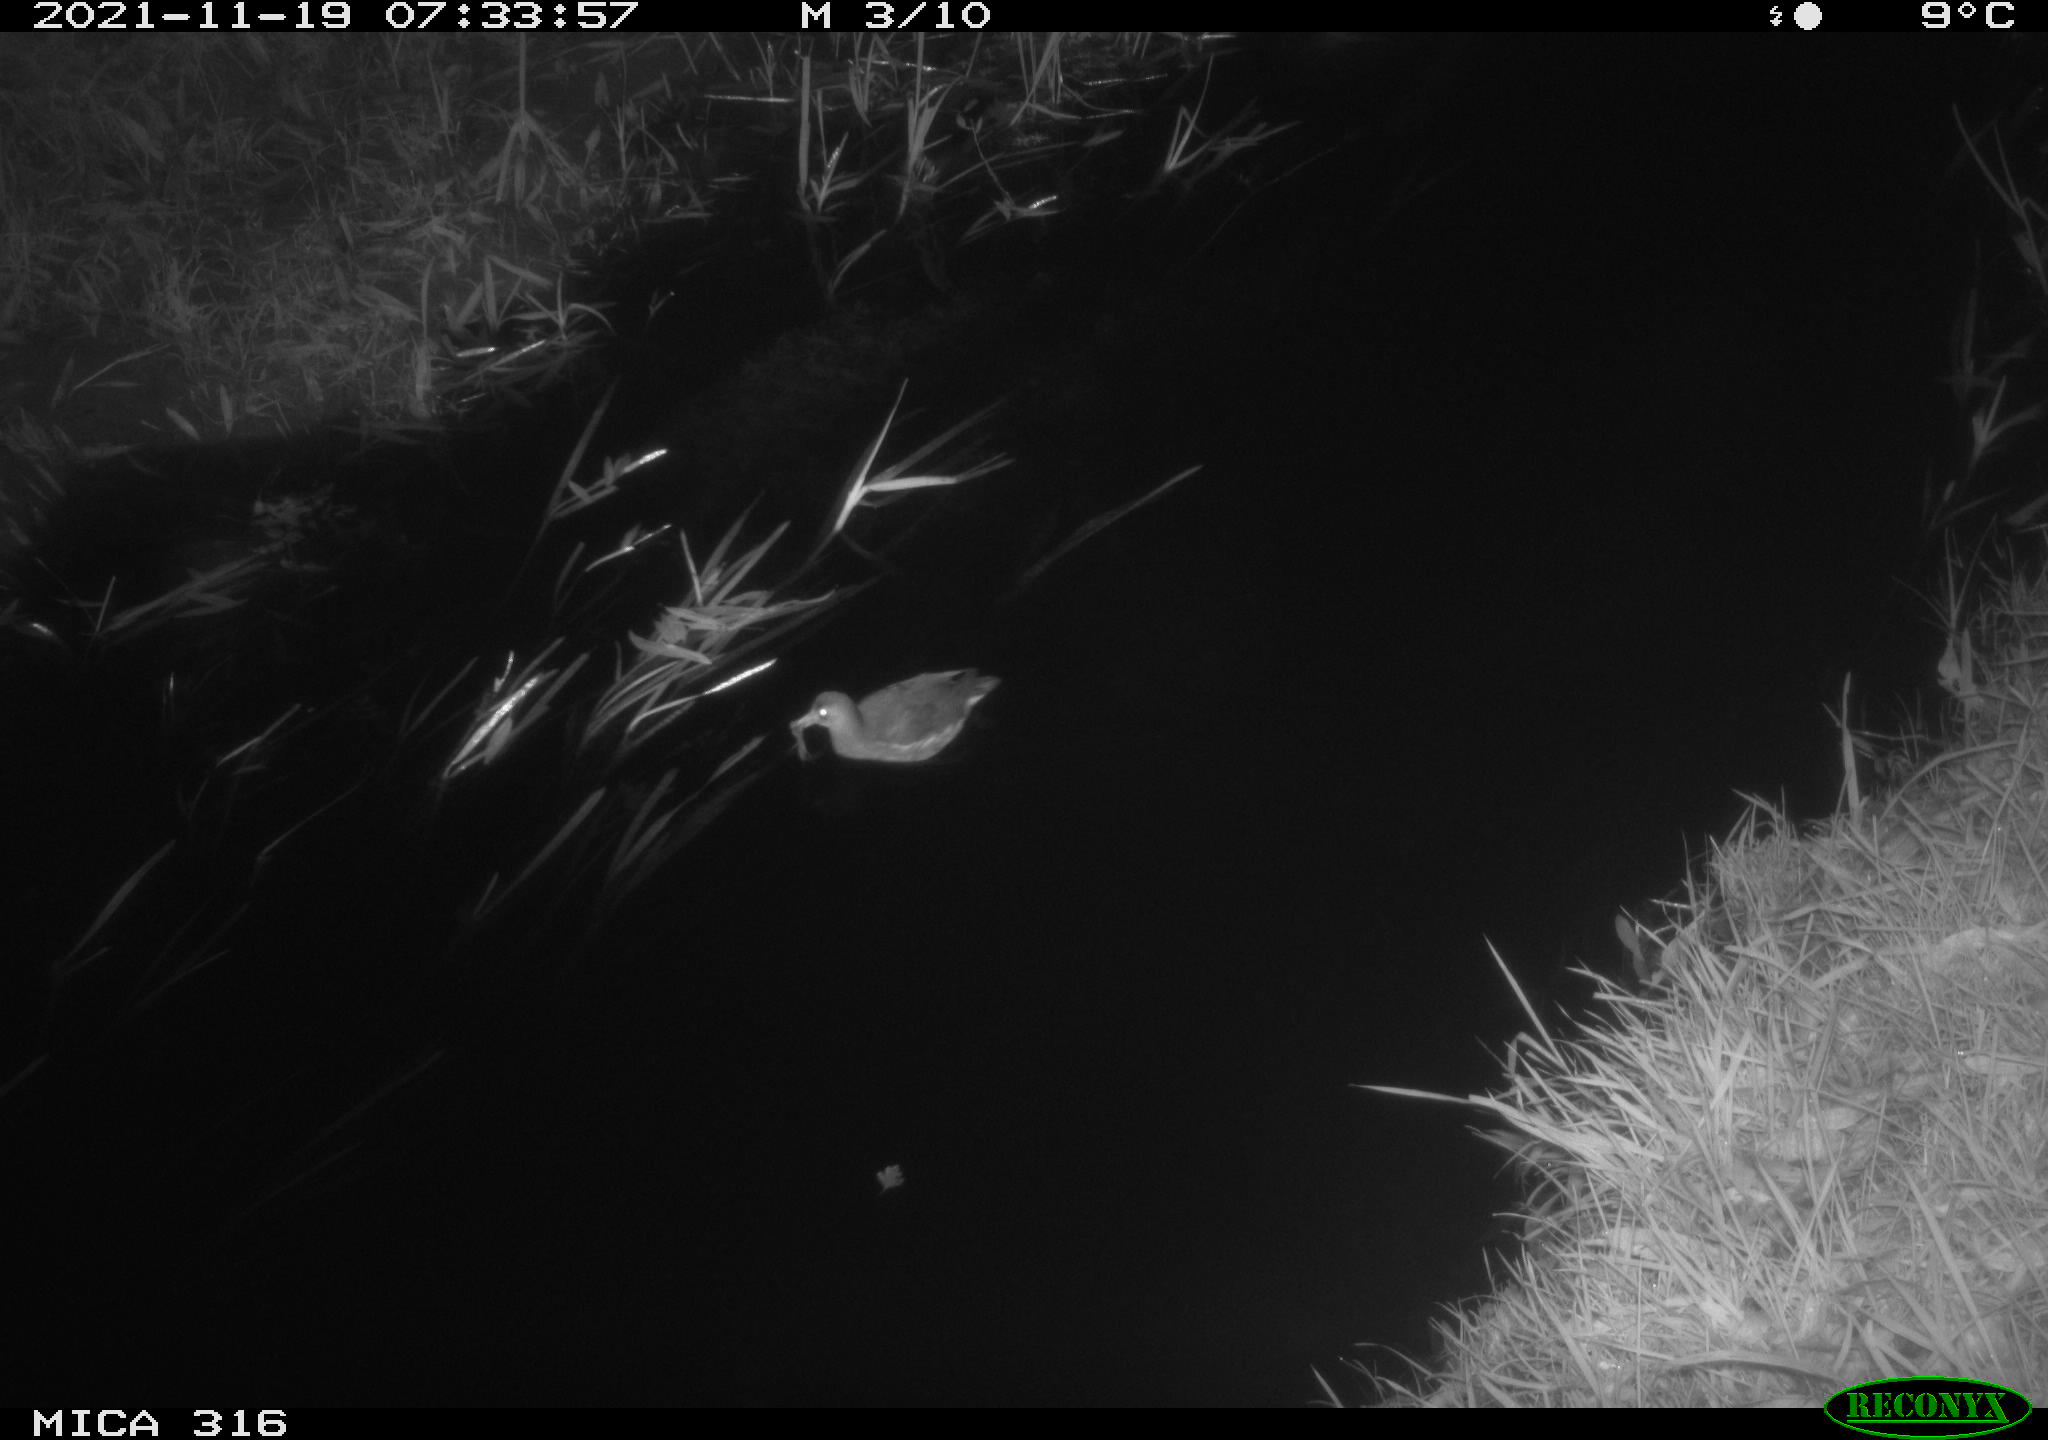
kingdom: Animalia
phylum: Chordata
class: Aves
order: Gruiformes
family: Rallidae
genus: Gallinula
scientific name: Gallinula chloropus
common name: Common moorhen
